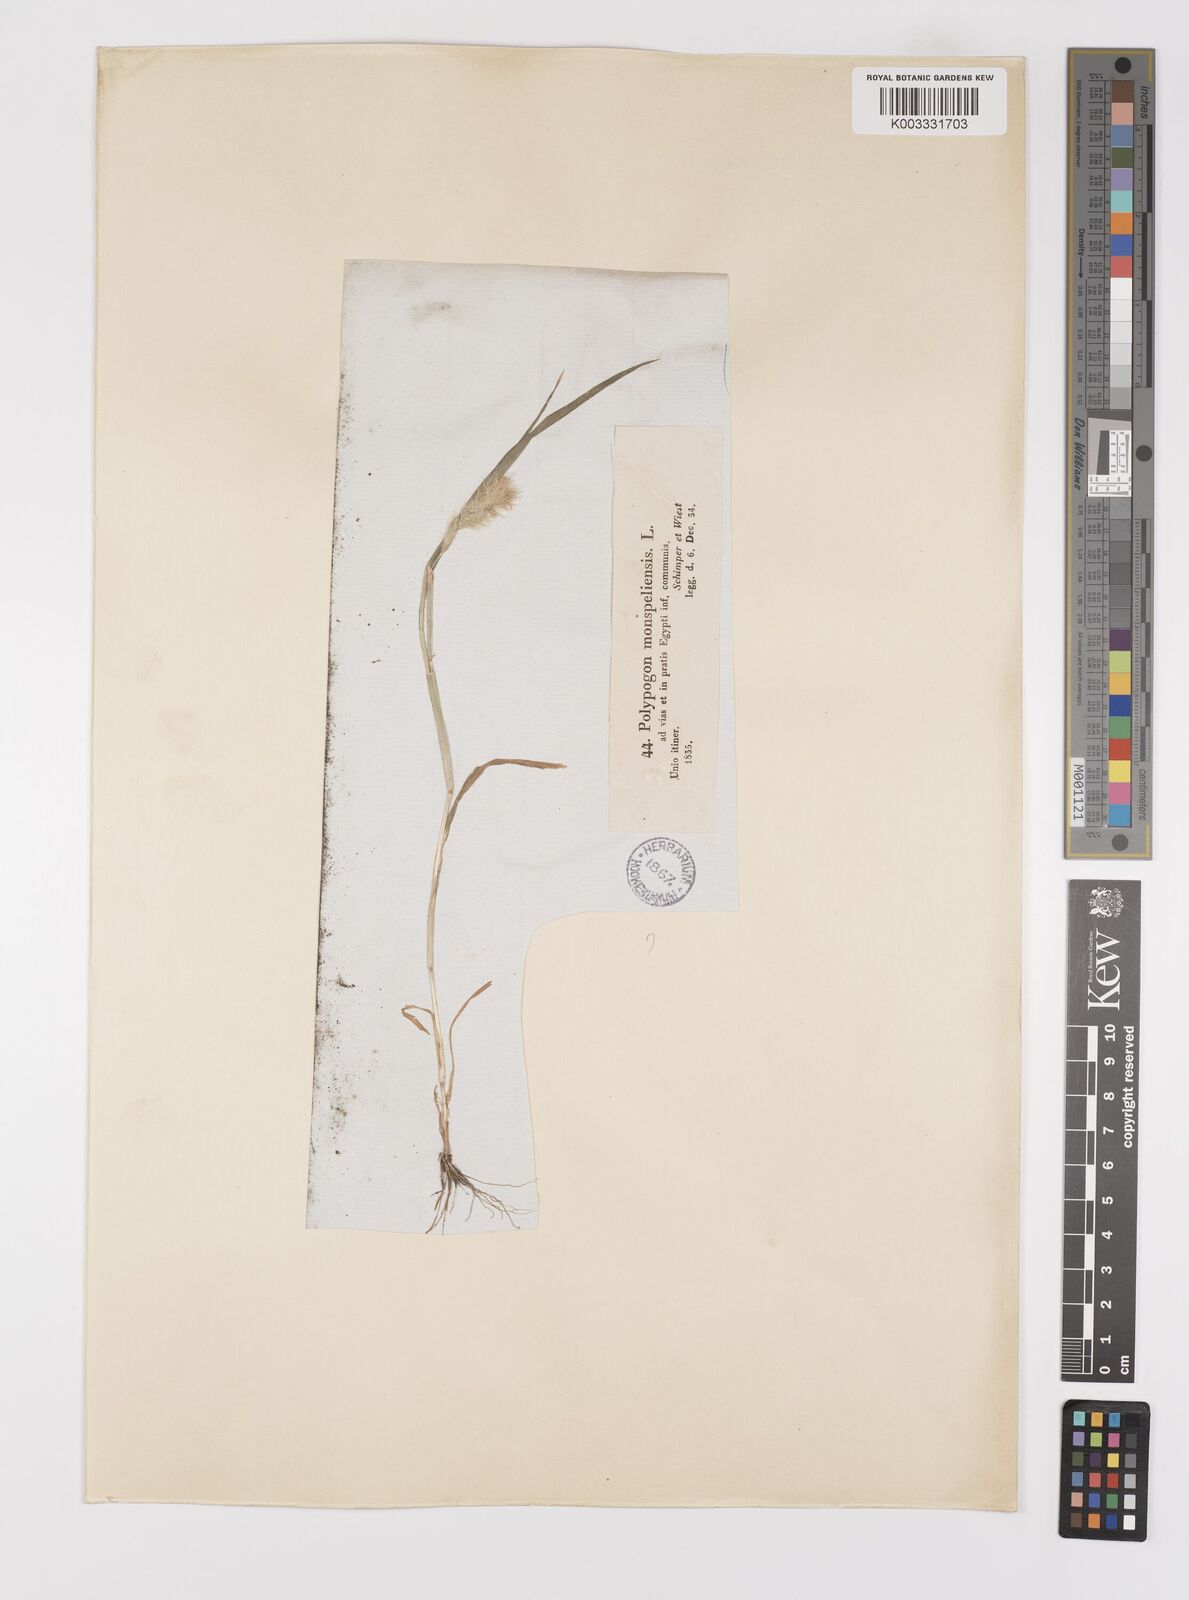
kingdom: Plantae
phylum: Tracheophyta
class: Liliopsida
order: Poales
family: Poaceae
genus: Polypogon
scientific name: Polypogon monspeliensis
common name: Annual rabbitsfoot grass
